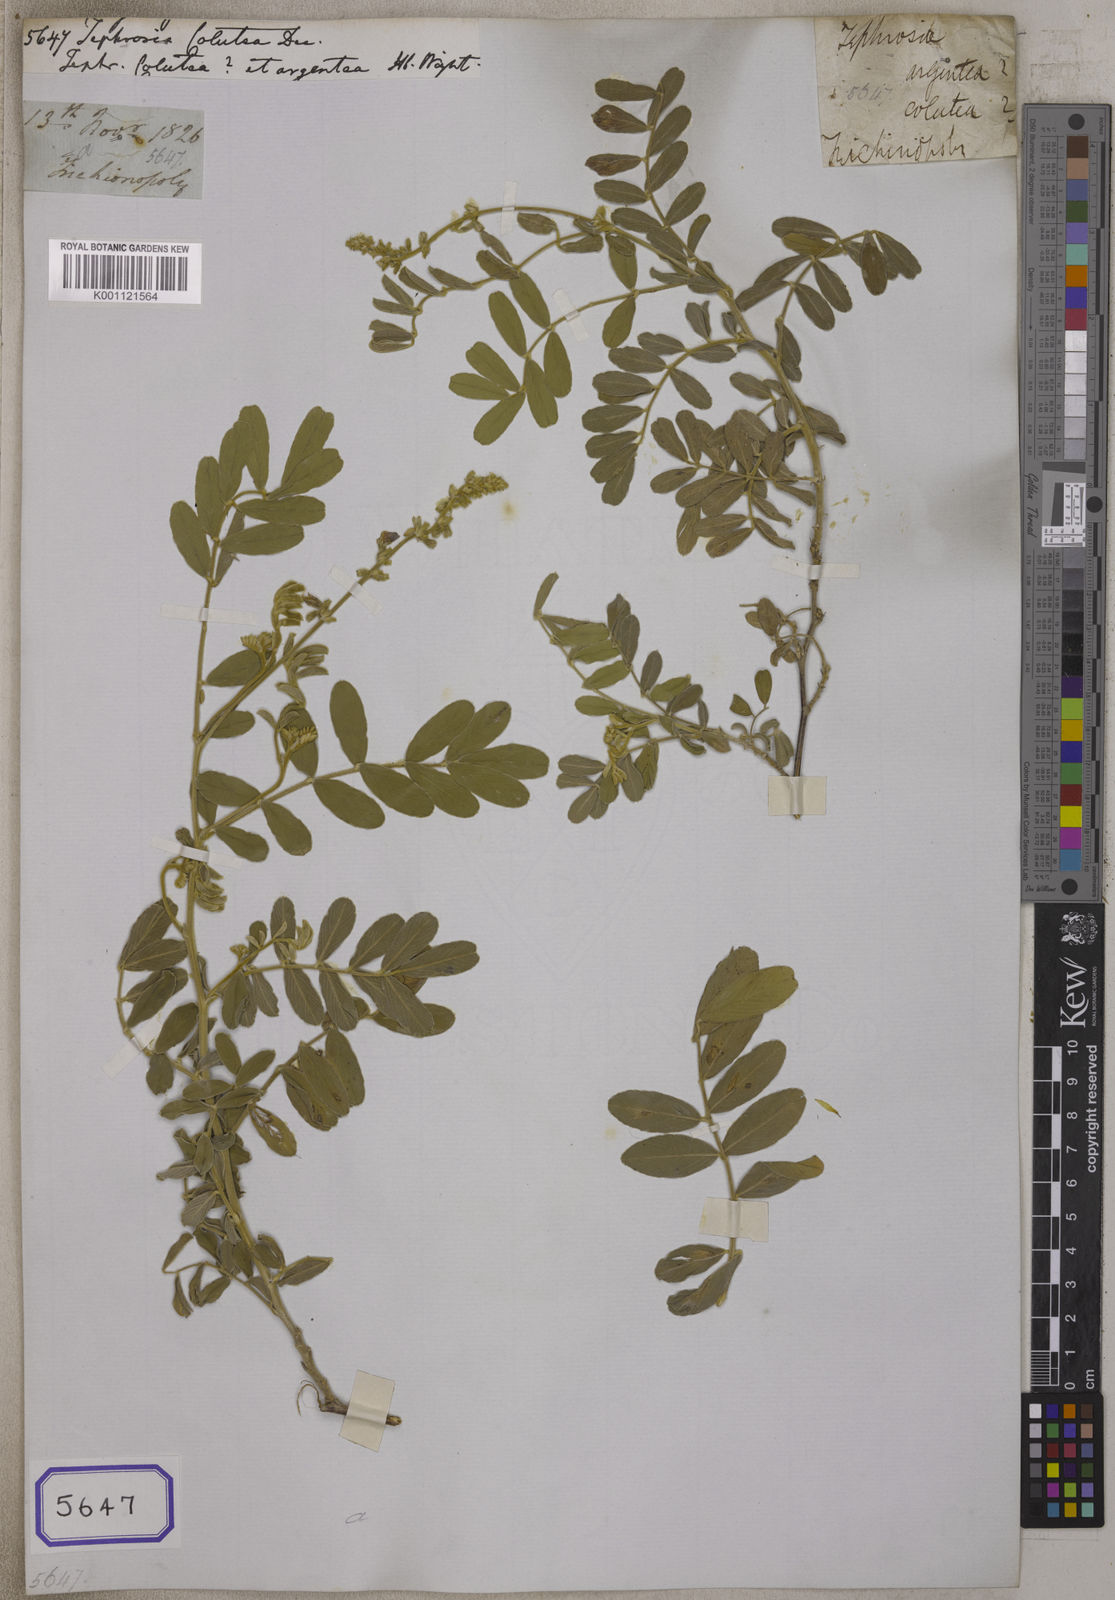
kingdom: Plantae
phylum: Tracheophyta
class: Magnoliopsida
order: Fabales
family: Fabaceae
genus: Tephrosia
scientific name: Tephrosia
